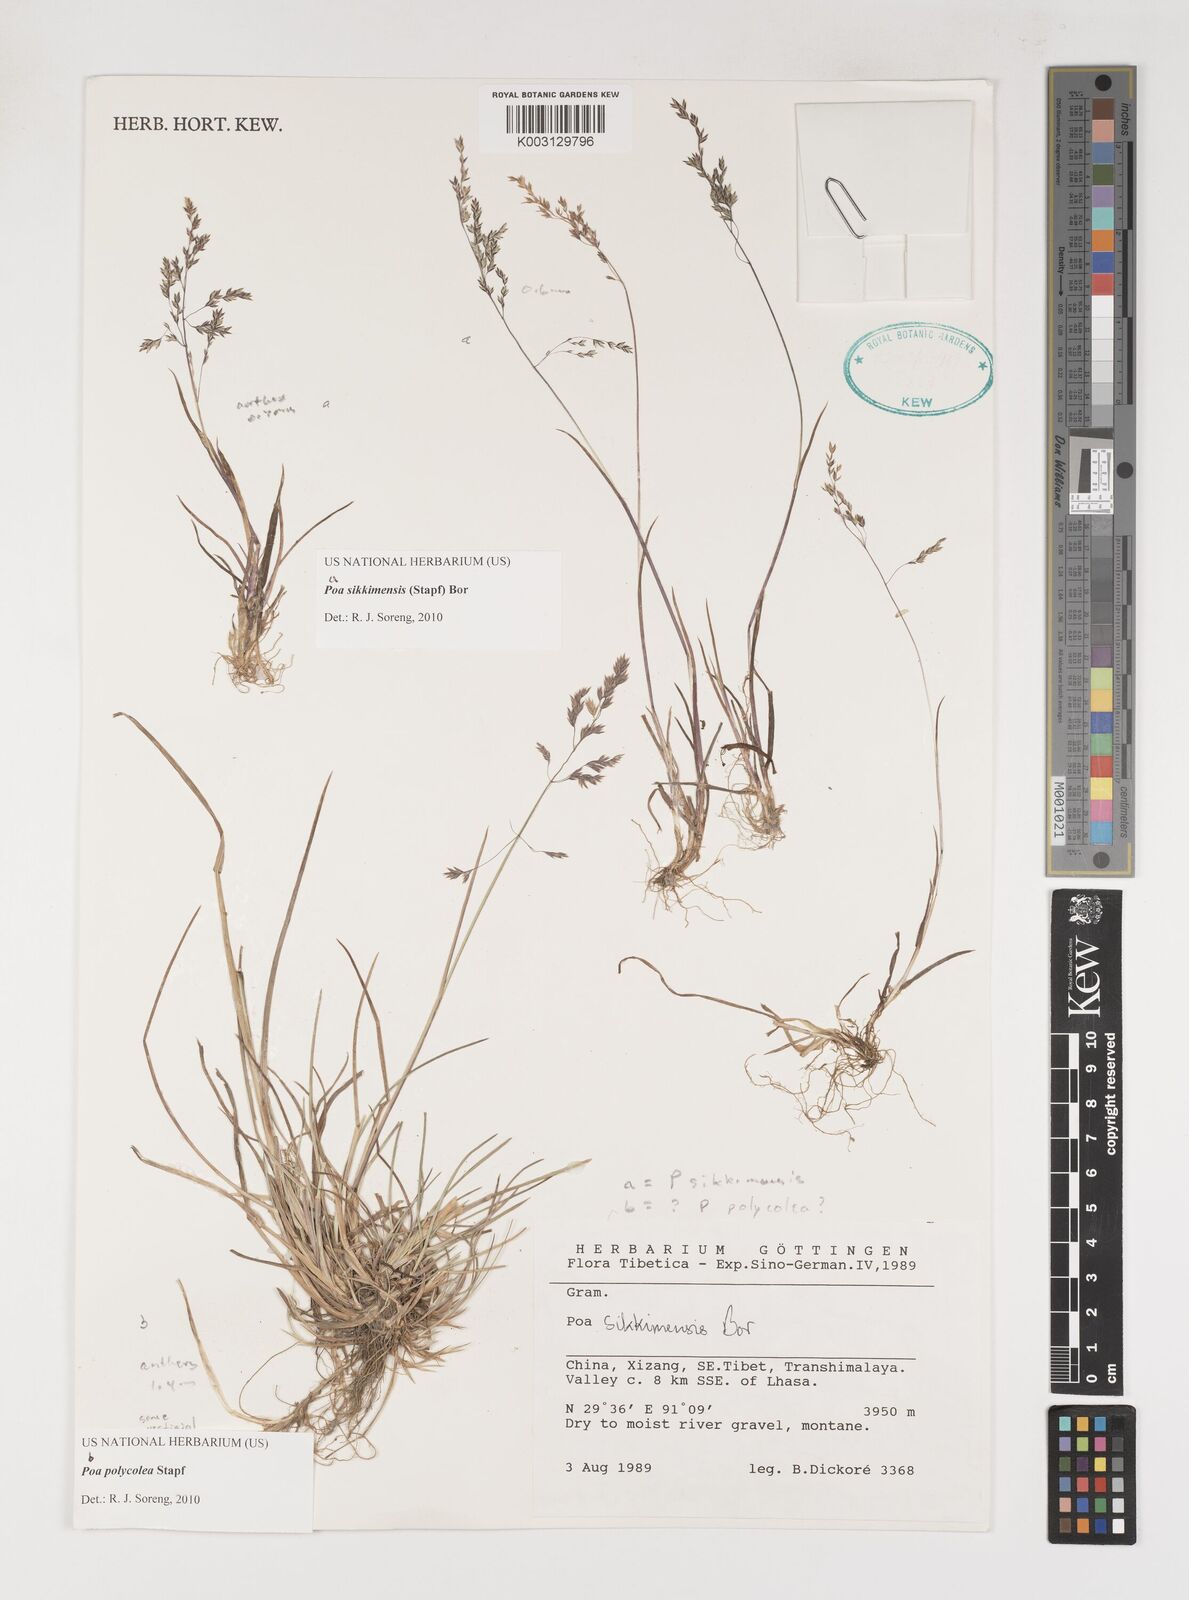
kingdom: Plantae
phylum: Tracheophyta
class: Liliopsida
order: Poales
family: Poaceae
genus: Poa
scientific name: Poa sikkimensis
